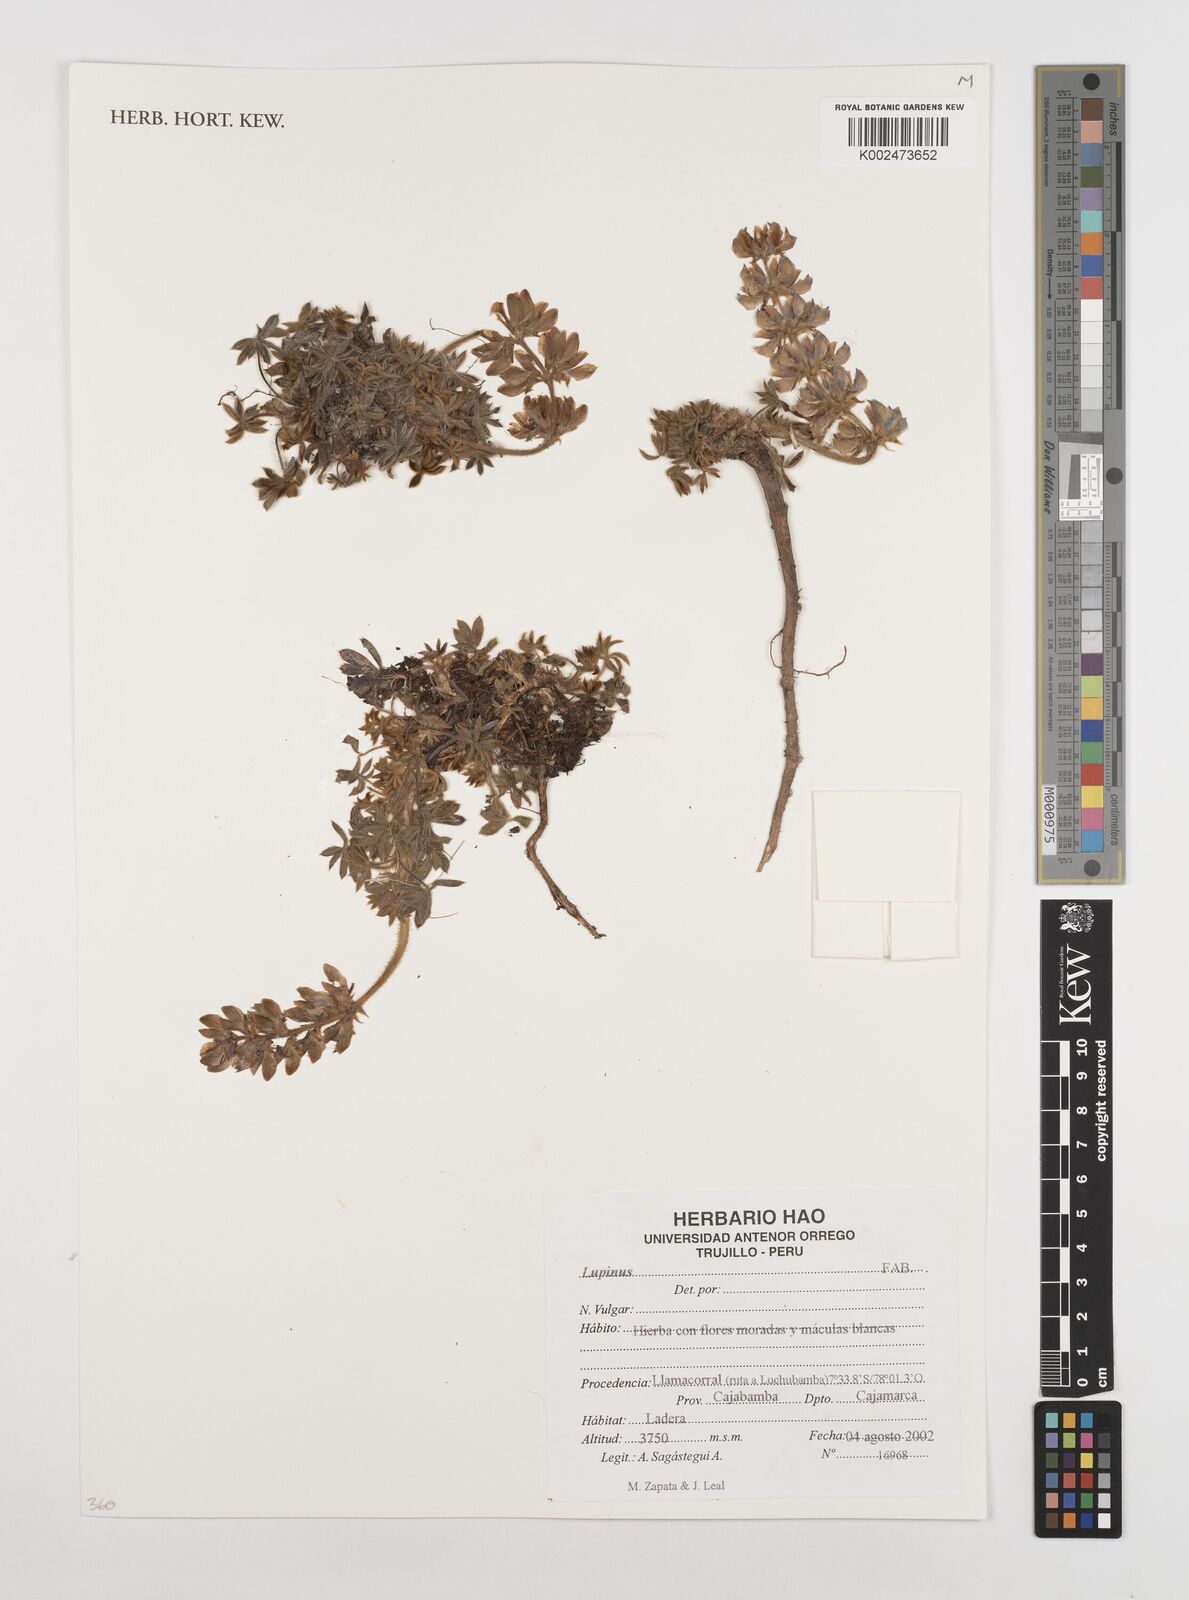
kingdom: Plantae
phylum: Tracheophyta
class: Magnoliopsida
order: Fabales
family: Fabaceae
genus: Lupinus
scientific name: Lupinus
